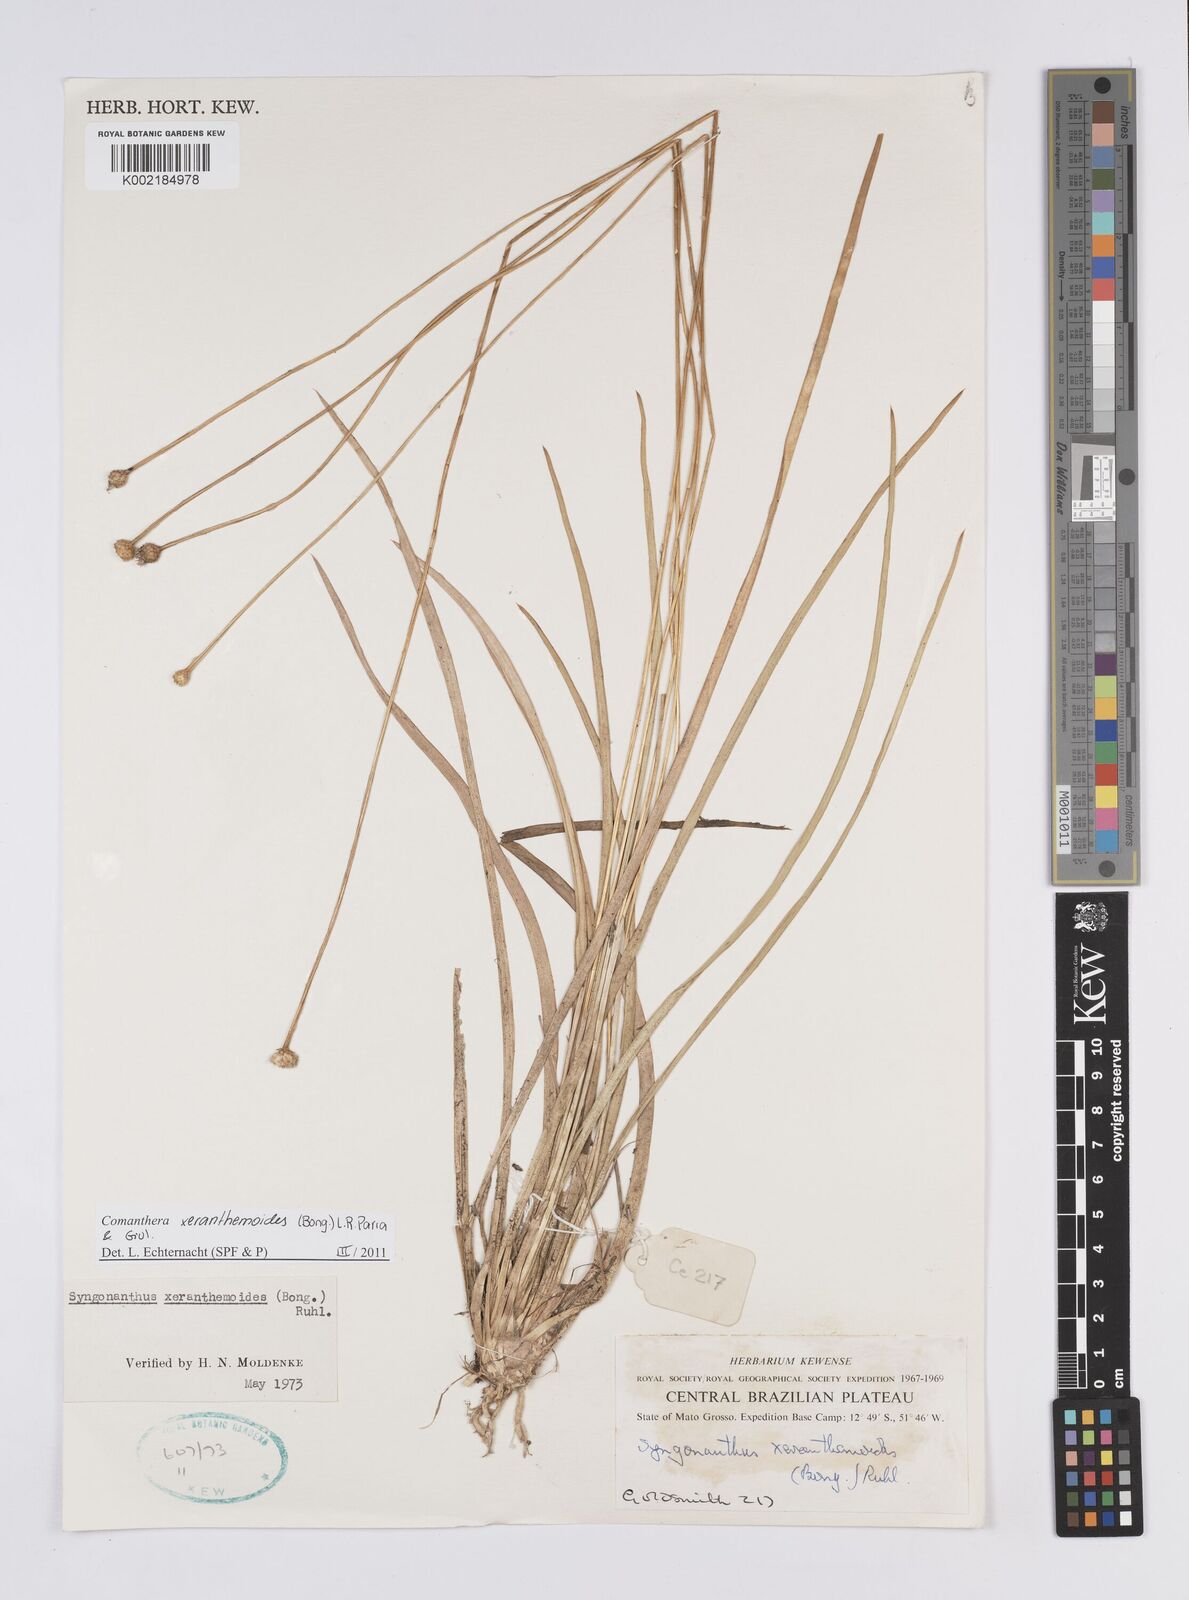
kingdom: Plantae
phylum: Tracheophyta
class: Liliopsida
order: Poales
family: Eriocaulaceae
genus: Comanthera
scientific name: Comanthera xeranthemoides
